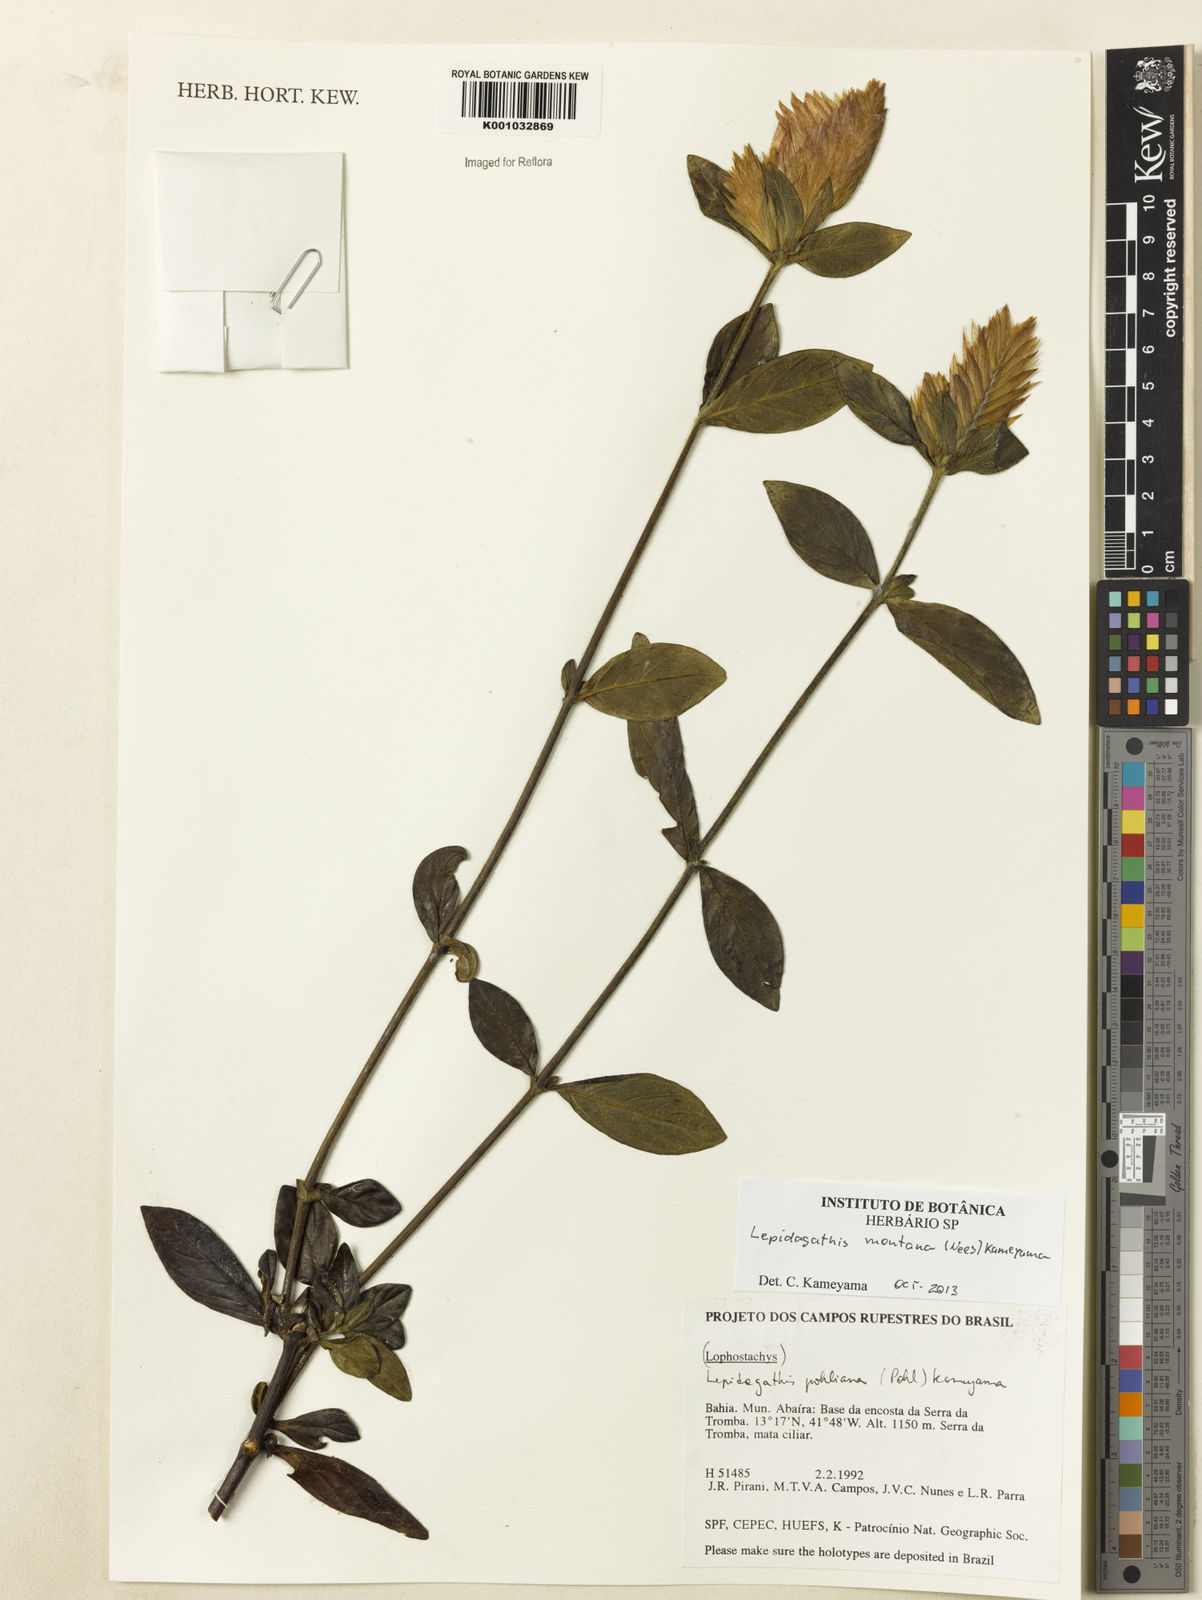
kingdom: Plantae
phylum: Tracheophyta
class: Magnoliopsida
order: Lamiales
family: Acanthaceae
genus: Lepidagathis
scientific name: Lepidagathis montana
